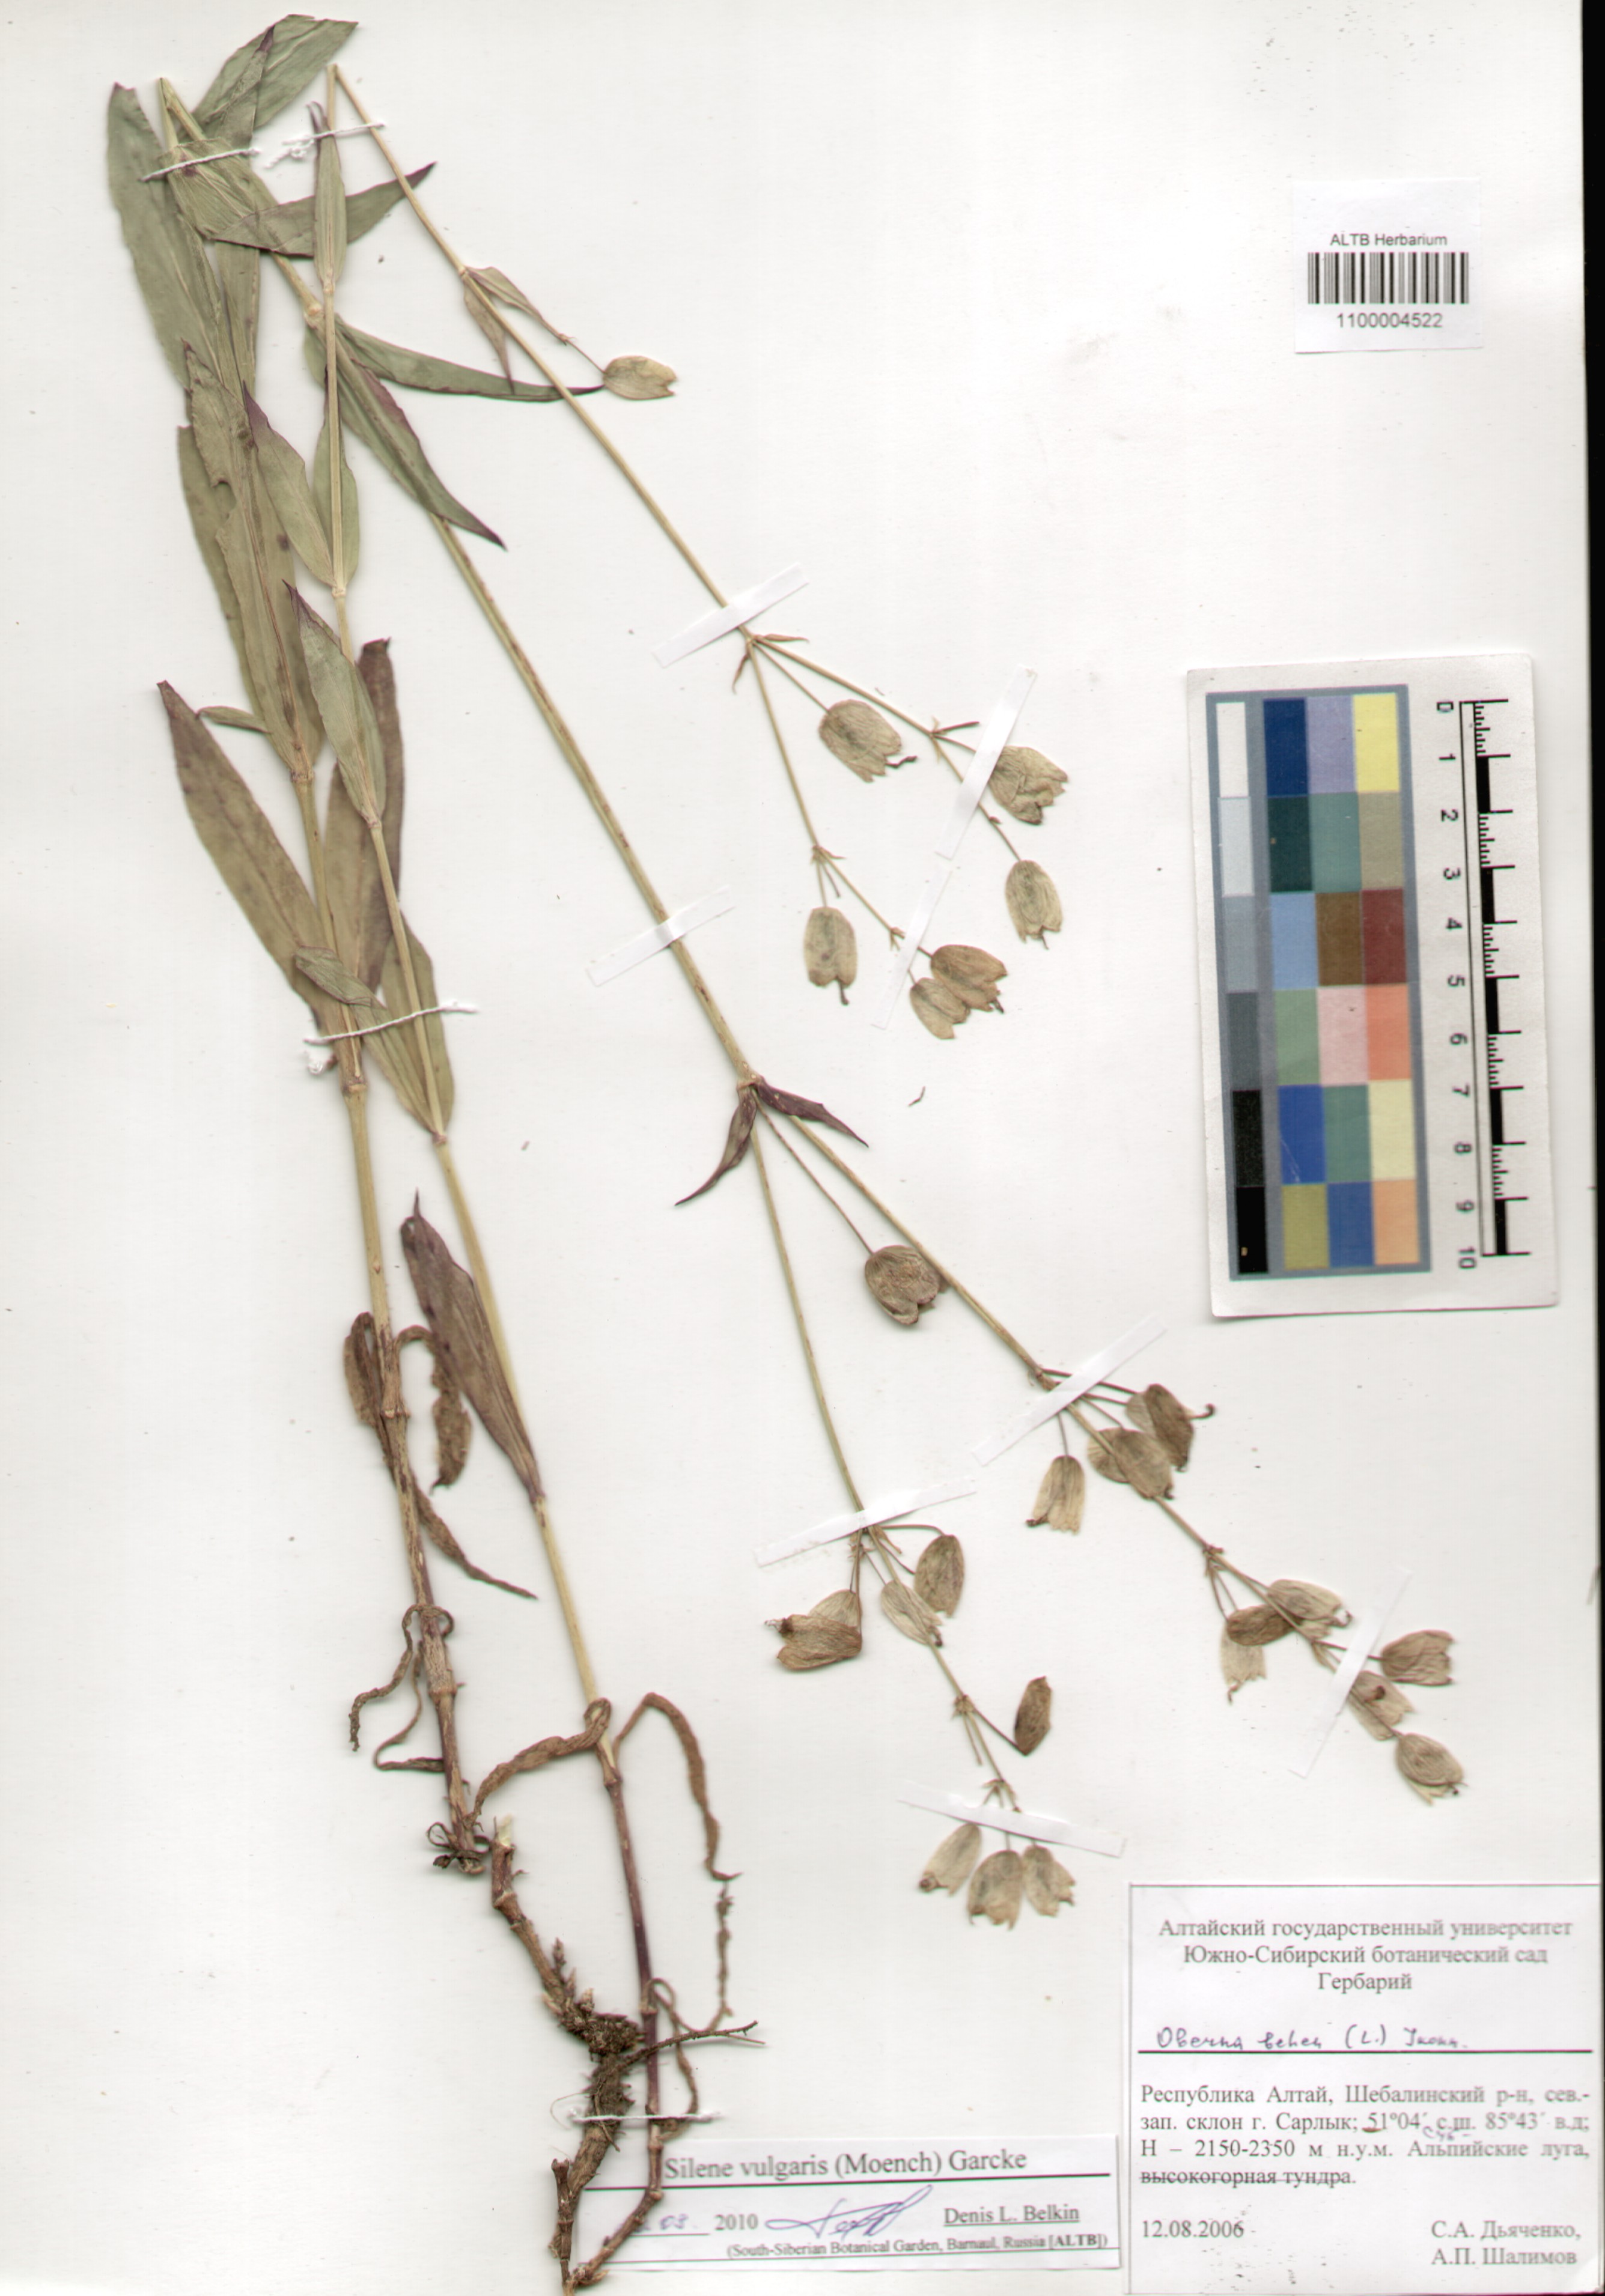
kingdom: Plantae
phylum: Tracheophyta
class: Magnoliopsida
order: Caryophyllales
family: Caryophyllaceae
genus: Silene
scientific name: Silene vulgaris
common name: Bladder campion
